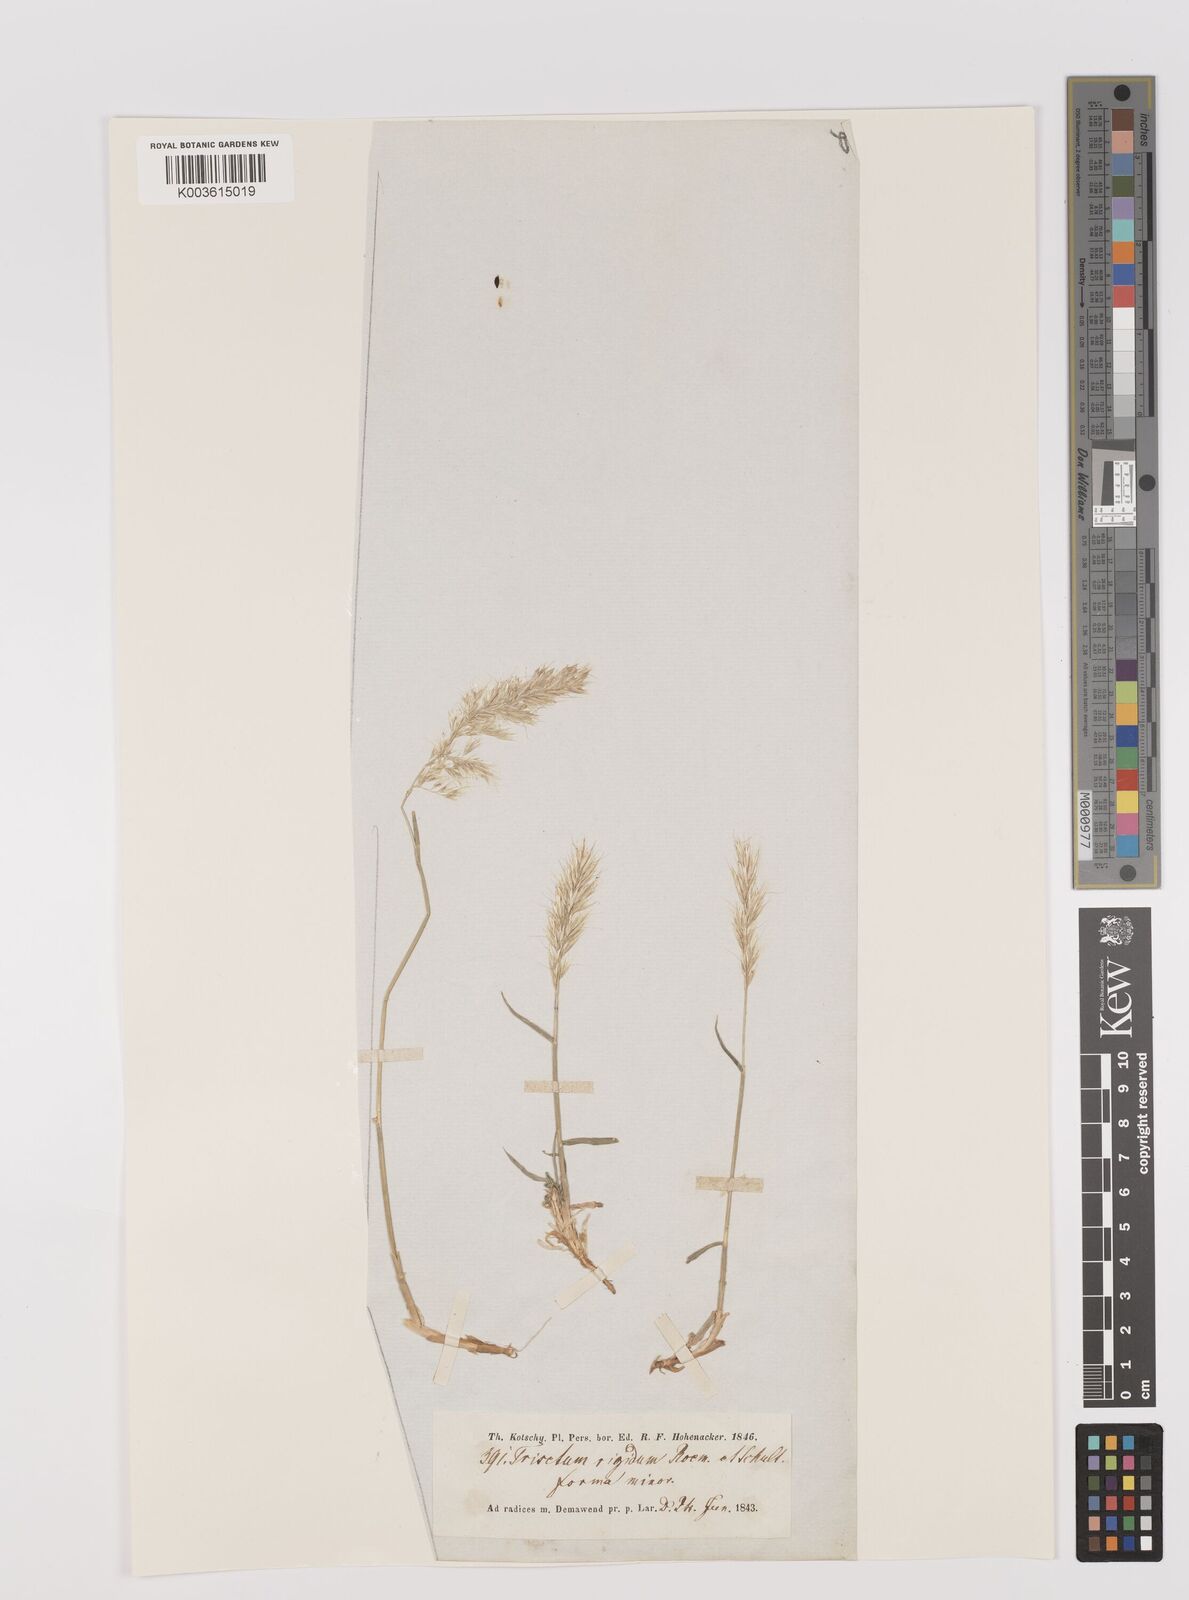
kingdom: Plantae
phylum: Tracheophyta
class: Liliopsida
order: Poales
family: Poaceae
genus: Trisetum
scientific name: Trisetum flavescens
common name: Yellow oat-grass
